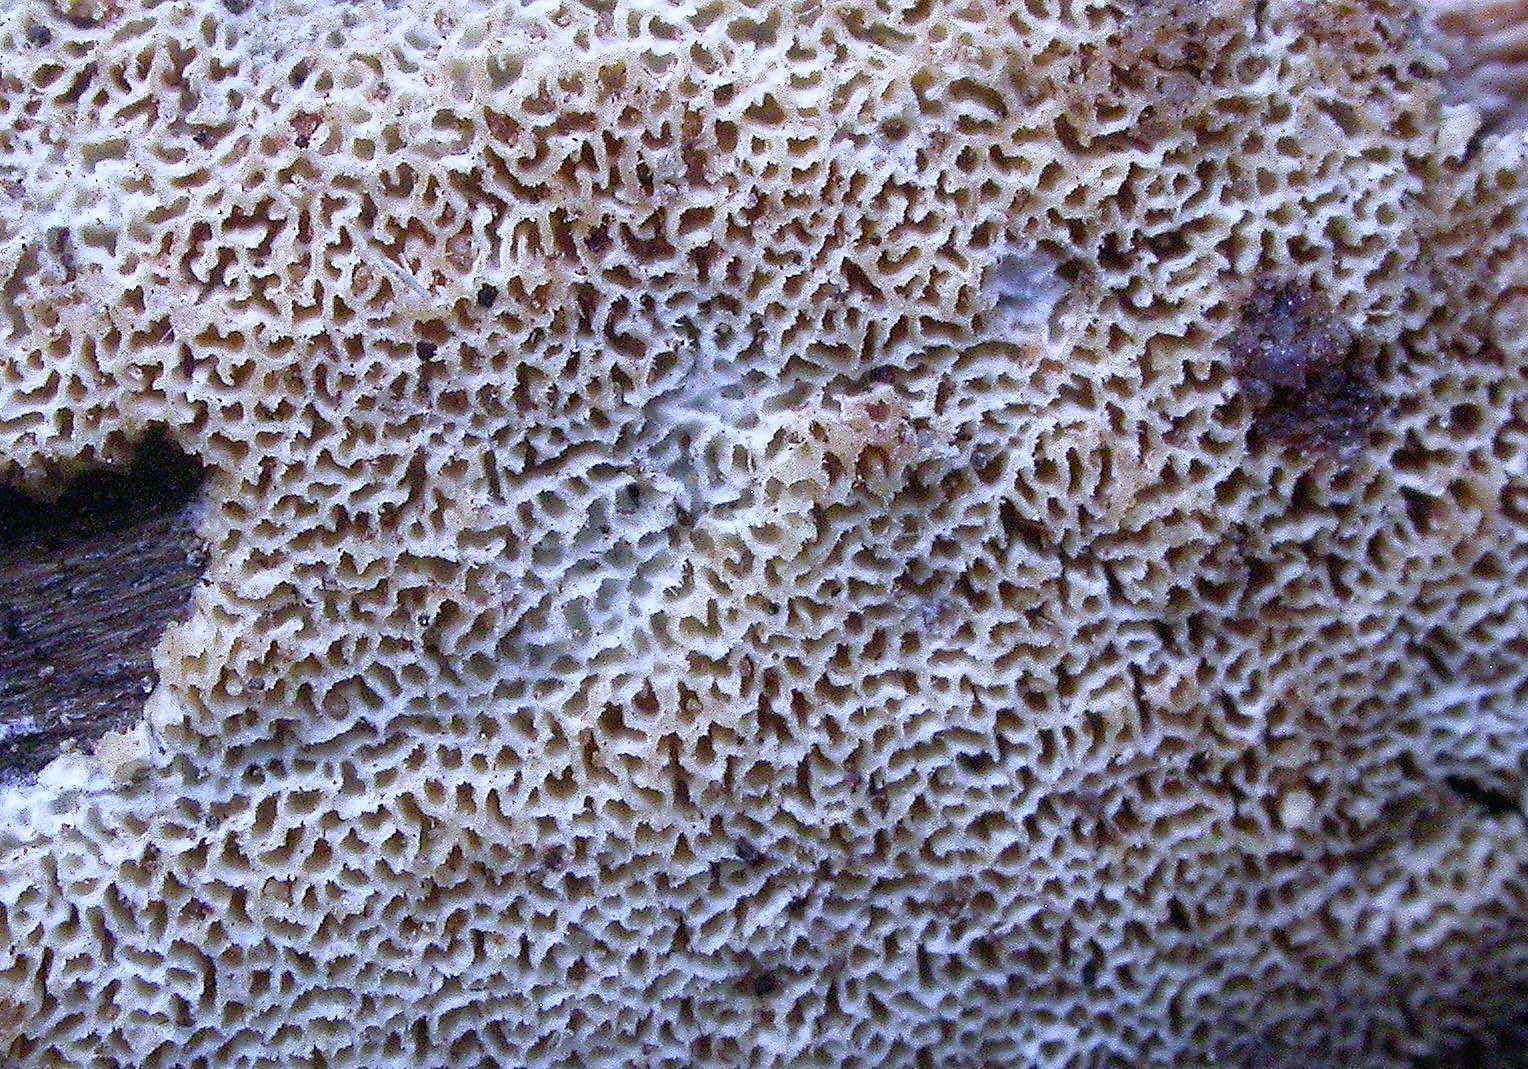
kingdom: Fungi
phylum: Basidiomycota
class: Agaricomycetes
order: Hymenochaetales
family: Schizoporaceae
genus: Xylodon
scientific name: Xylodon subtropicus
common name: labyrint-tandsvamp
